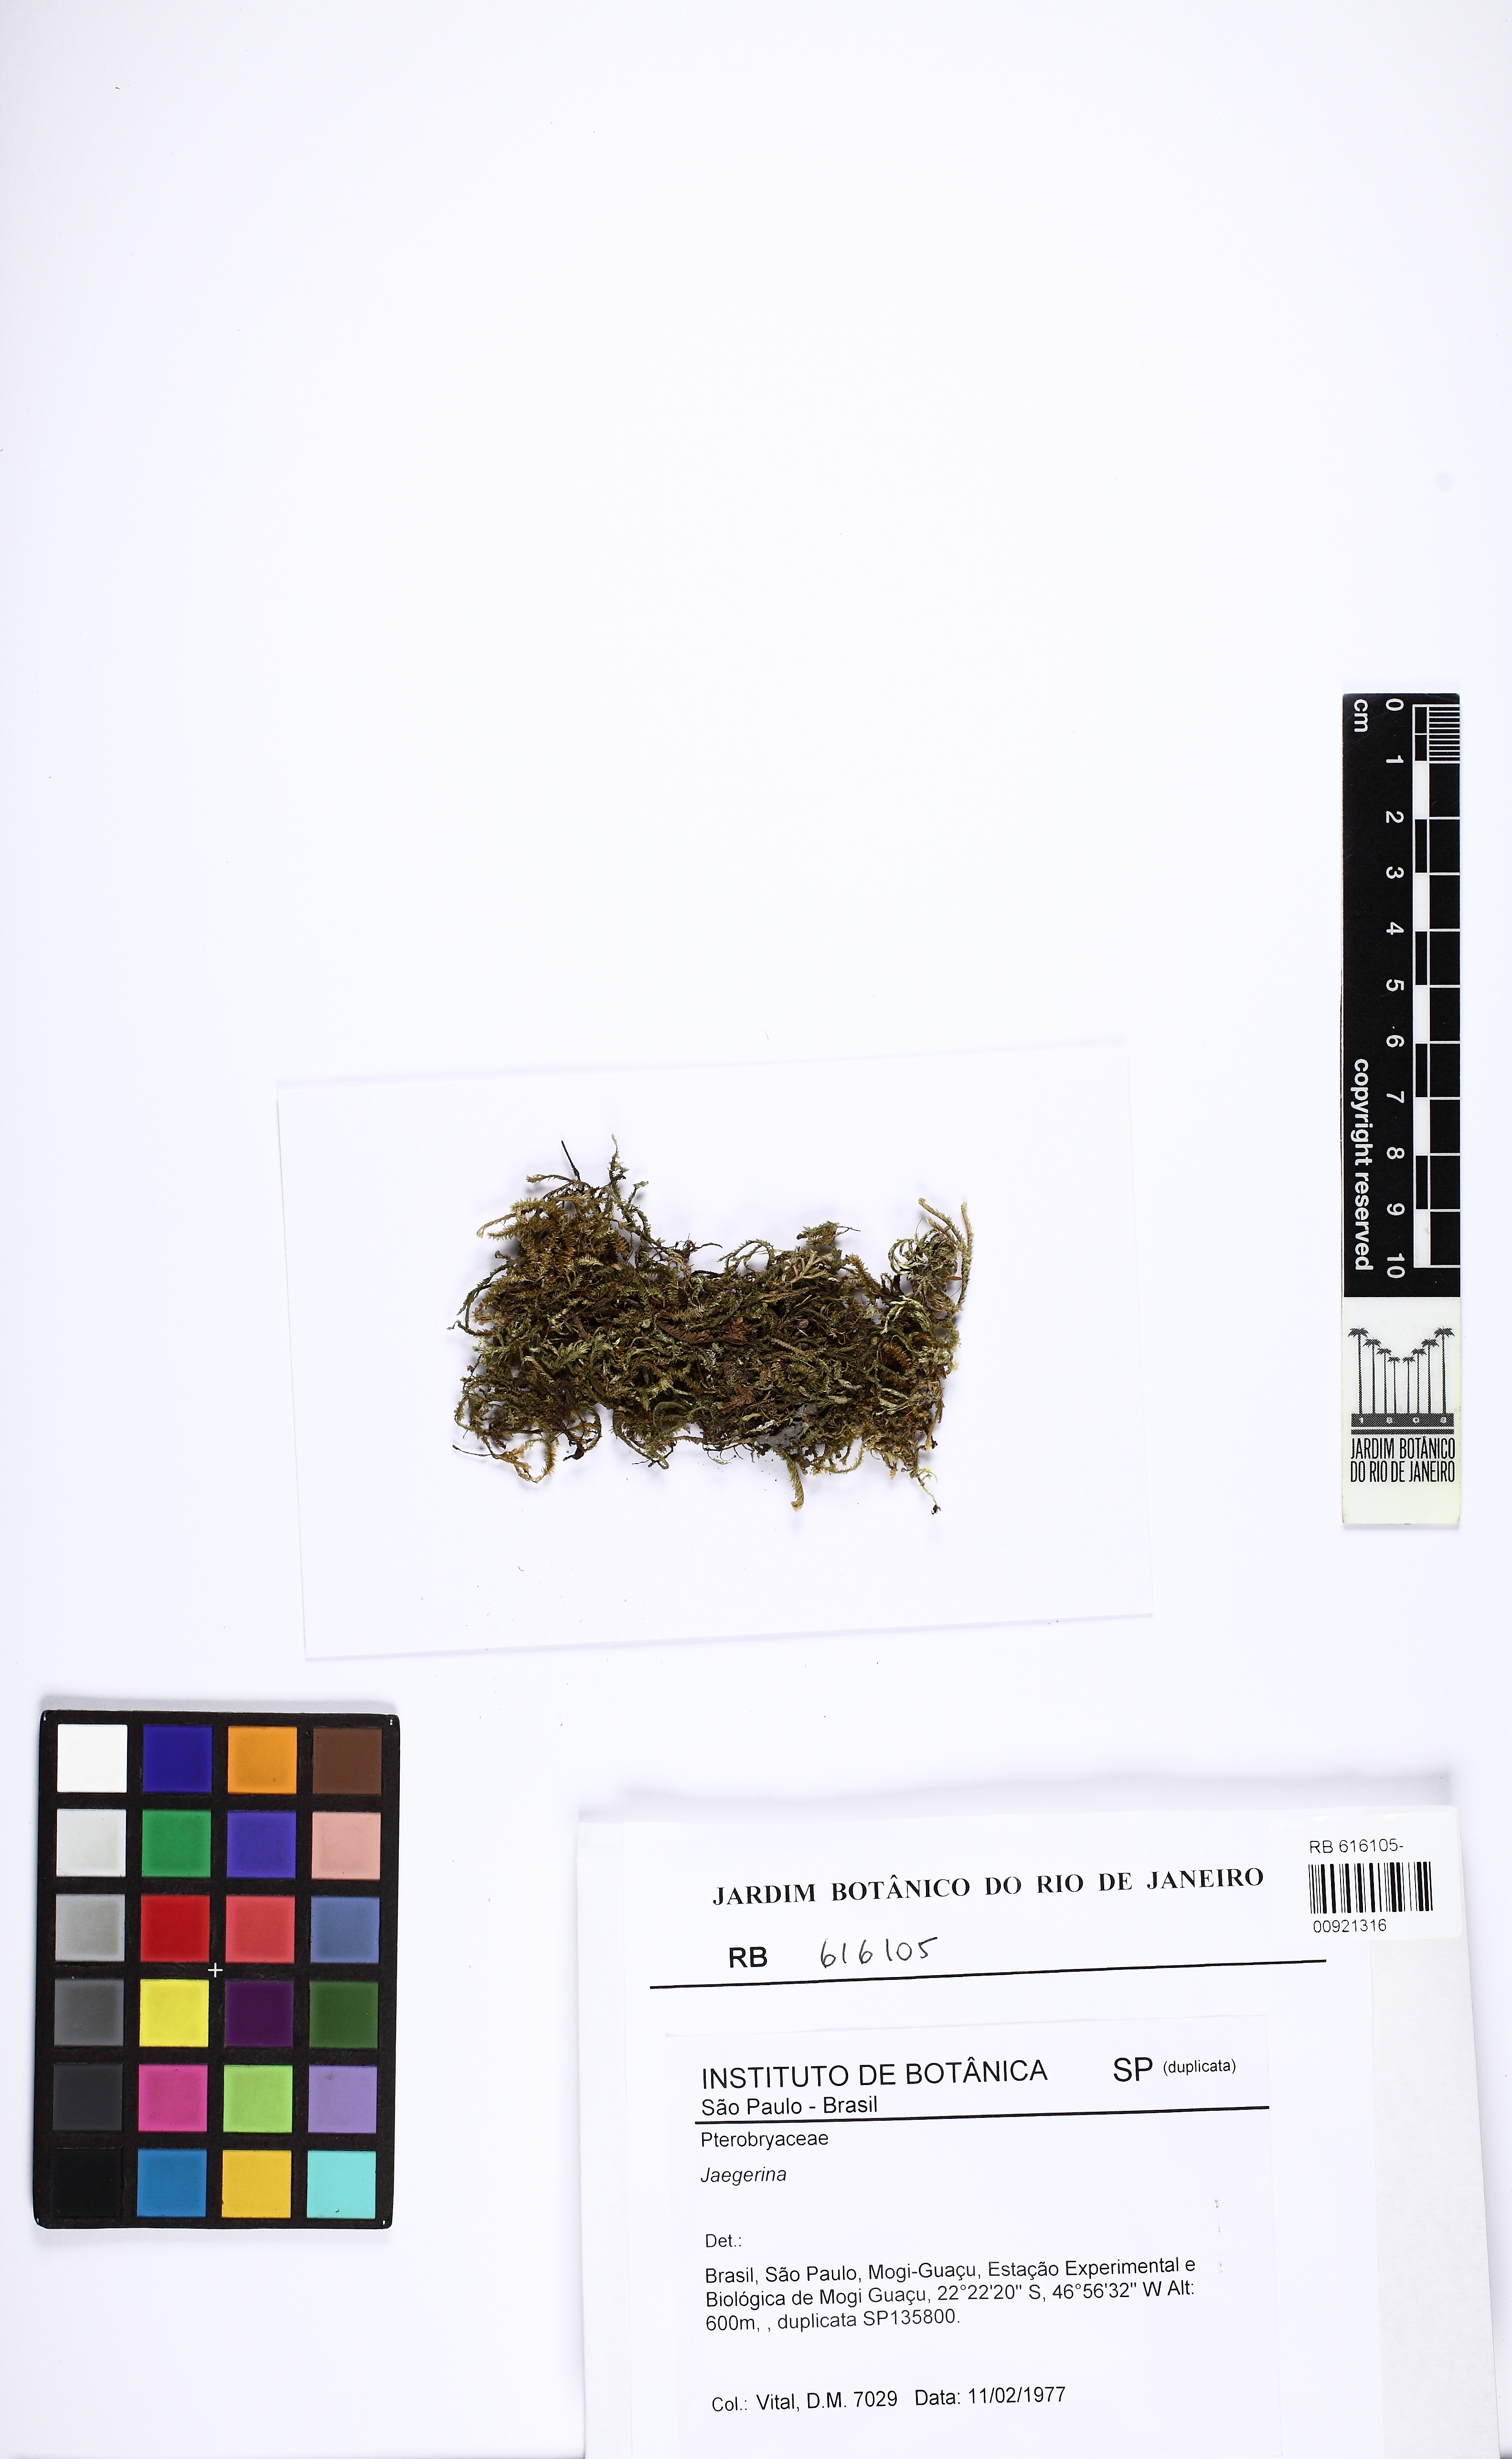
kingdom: Plantae
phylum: Bryophyta
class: Bryopsida
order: Hypnales
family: Pterobryaceae
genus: Jaegerina
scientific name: Jaegerina
